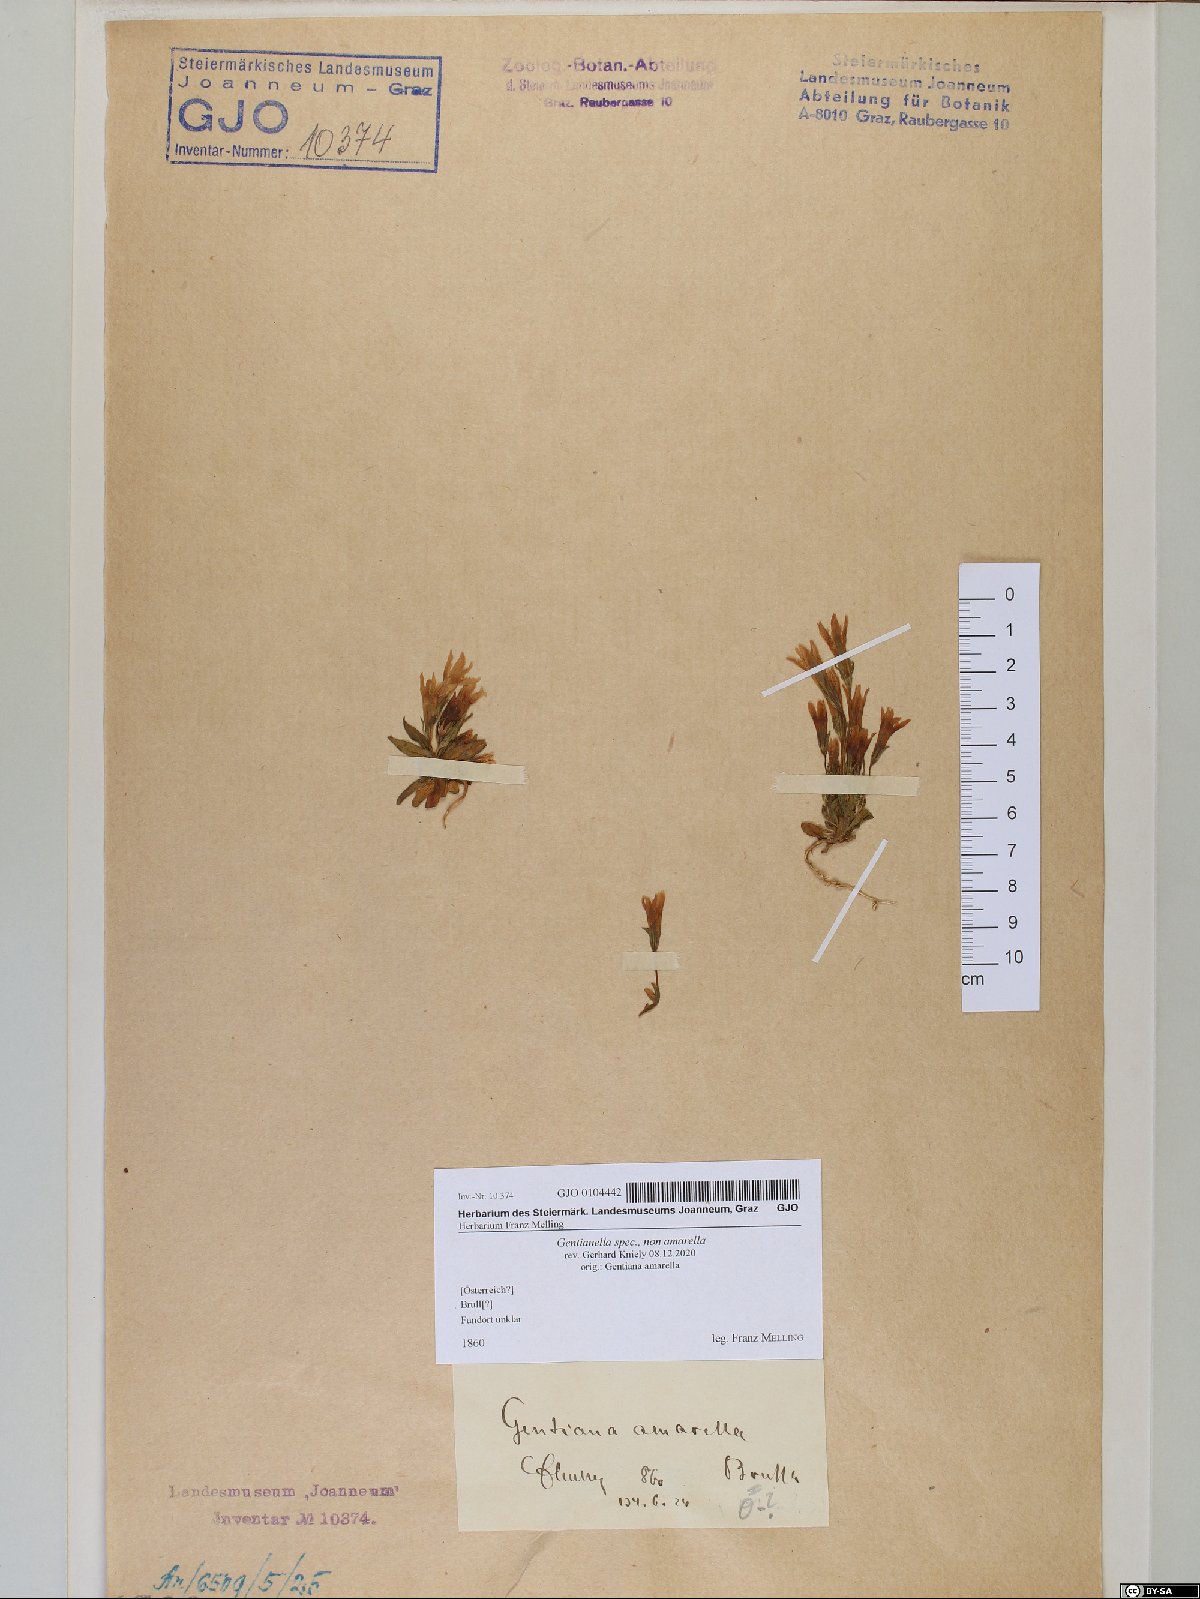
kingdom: Plantae
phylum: Tracheophyta
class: Magnoliopsida
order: Gentianales
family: Gentianaceae
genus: Gentianella
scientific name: Gentianella
